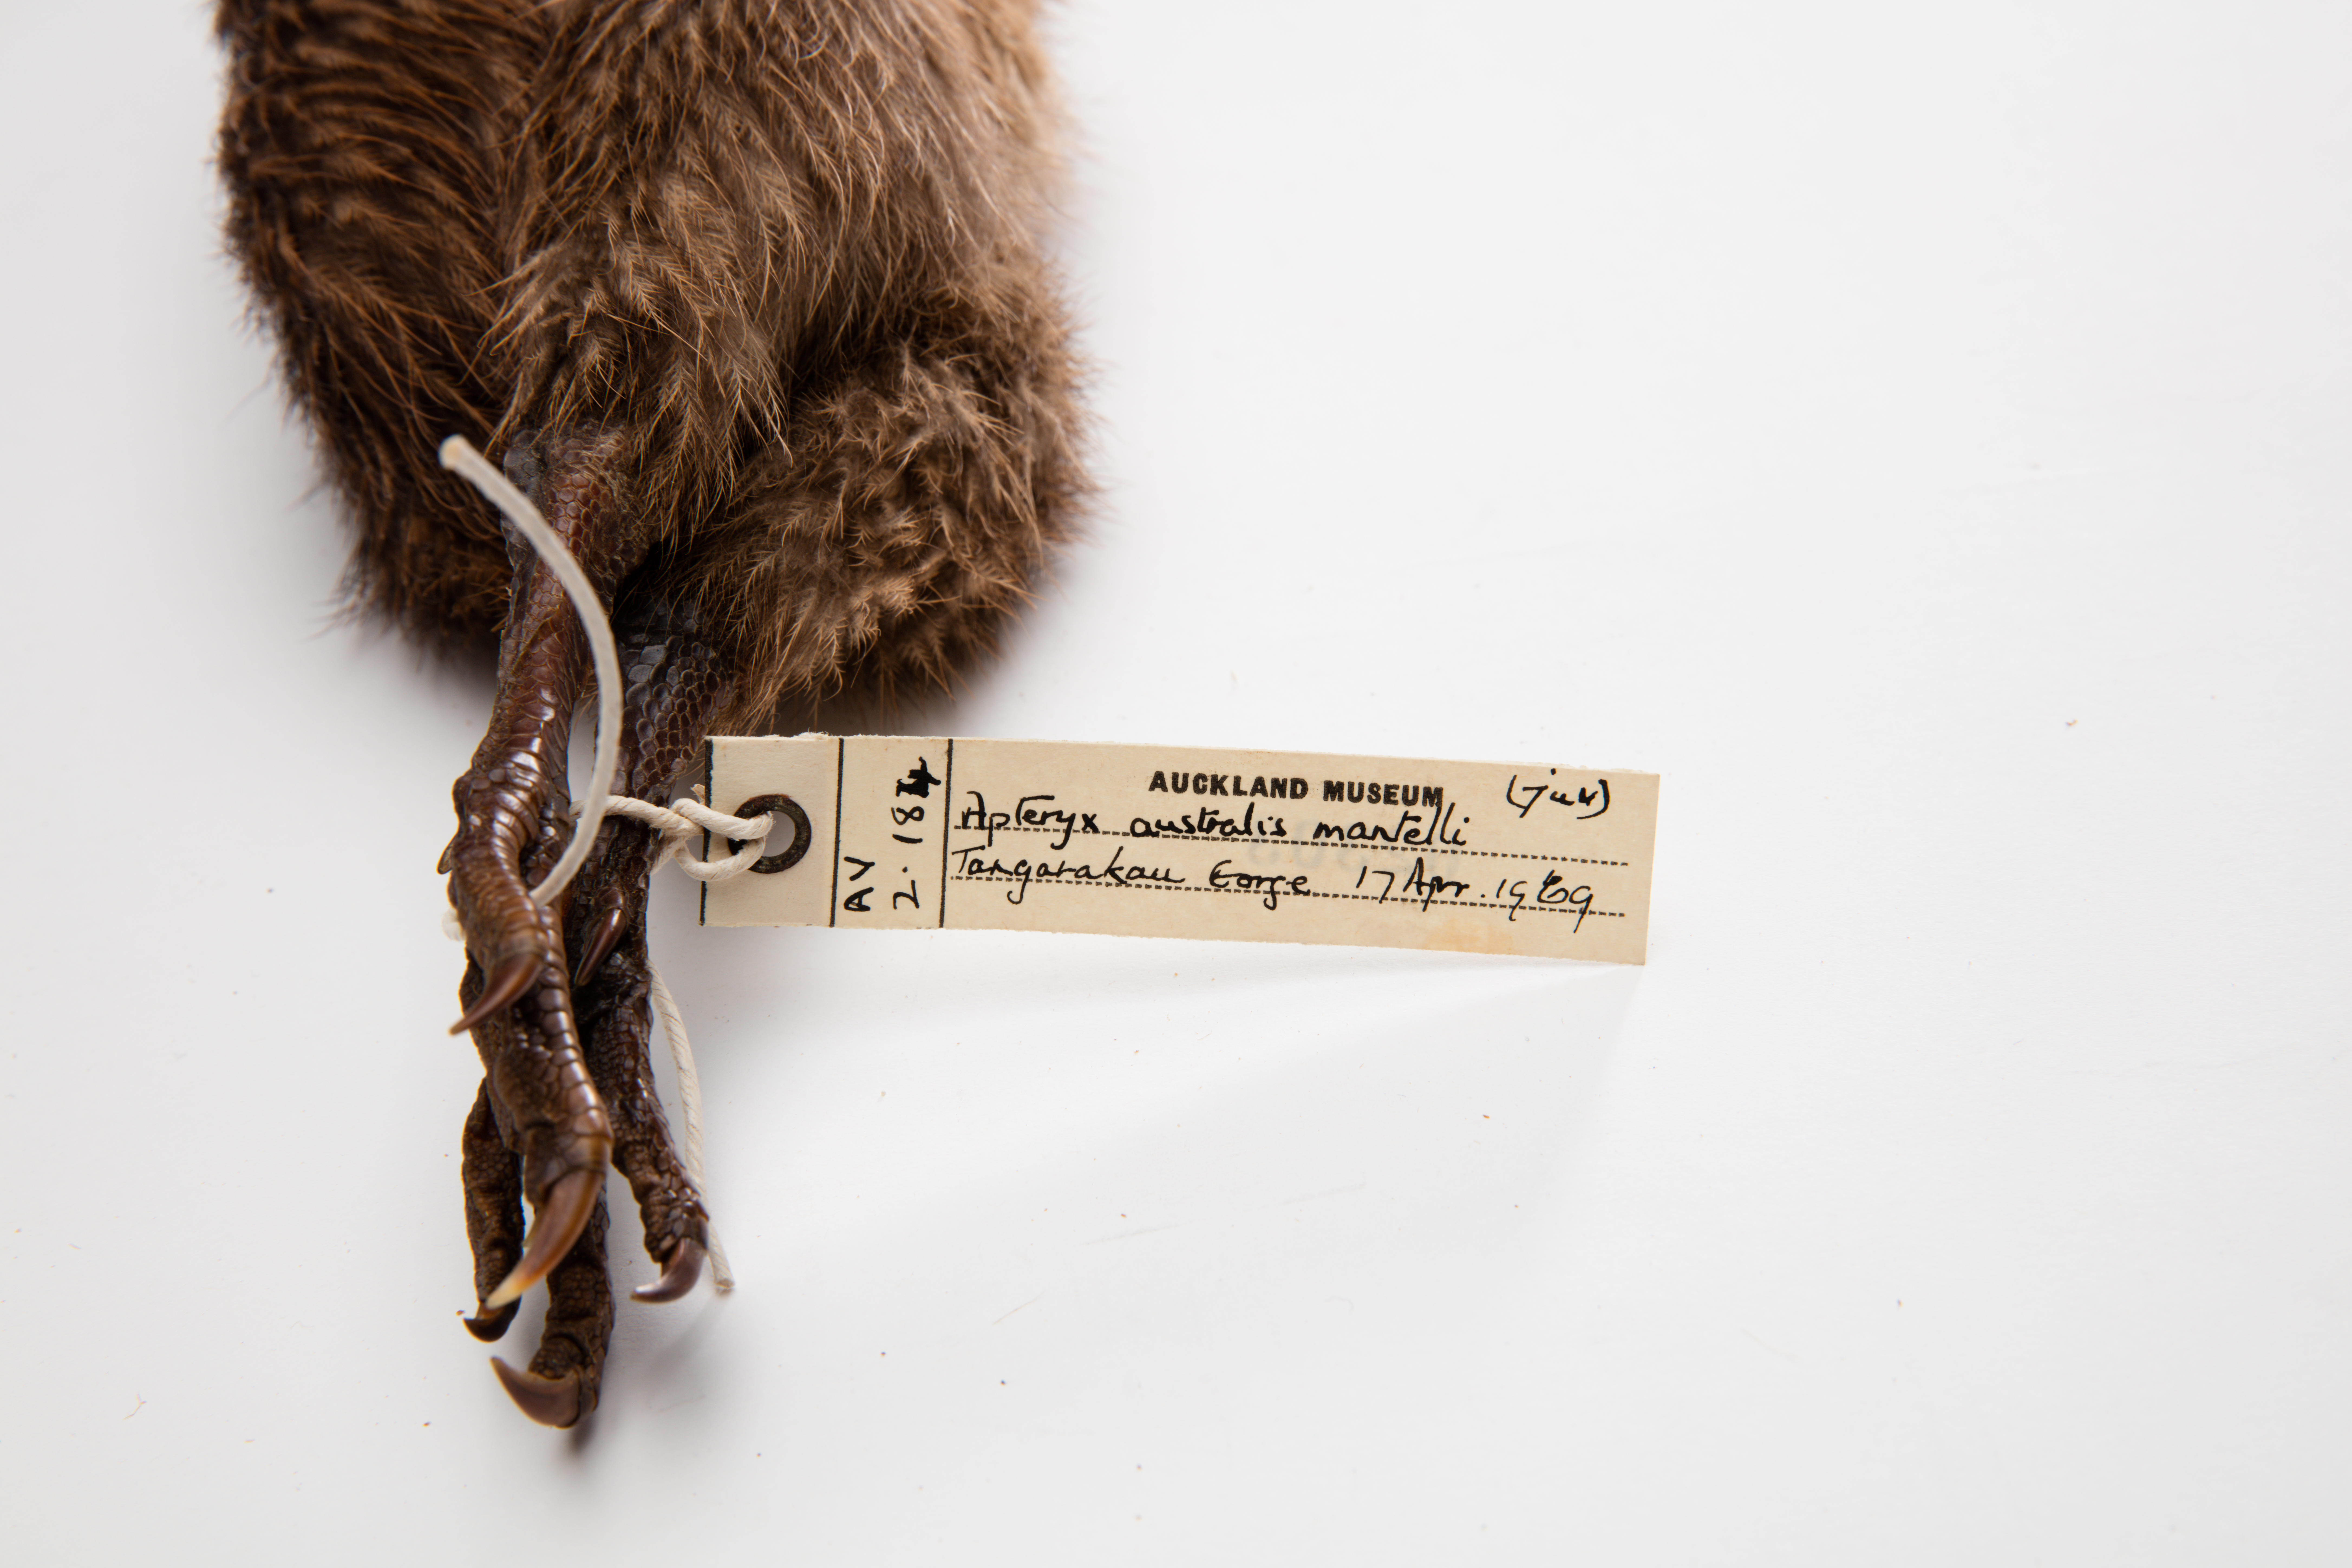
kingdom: Animalia
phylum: Chordata
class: Aves
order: Apterygiformes
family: Apterygidae
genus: Apteryx
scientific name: Apteryx mantelli
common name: North island brown kiwi
